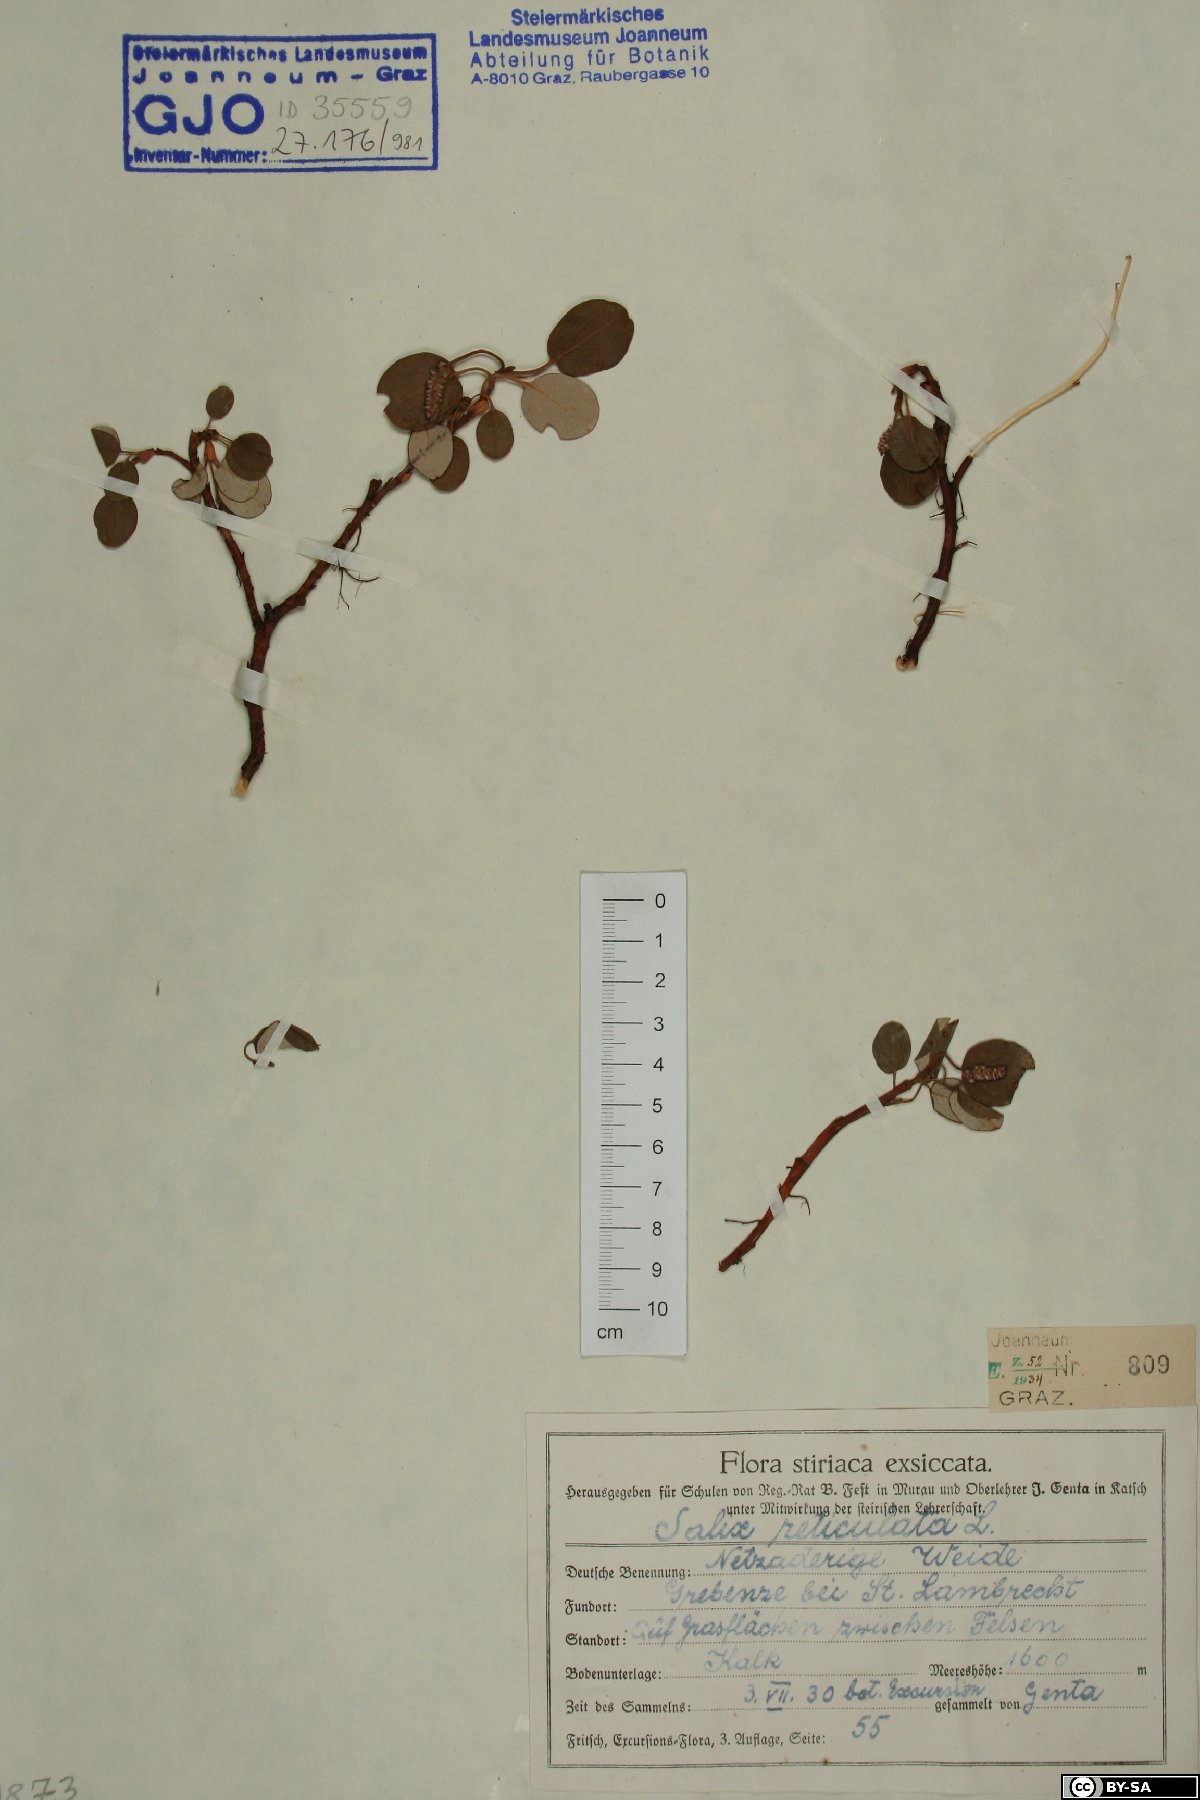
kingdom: Plantae
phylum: Tracheophyta
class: Magnoliopsida
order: Malpighiales
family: Salicaceae
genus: Salix
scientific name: Salix reticulata
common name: Net-leaved willow
